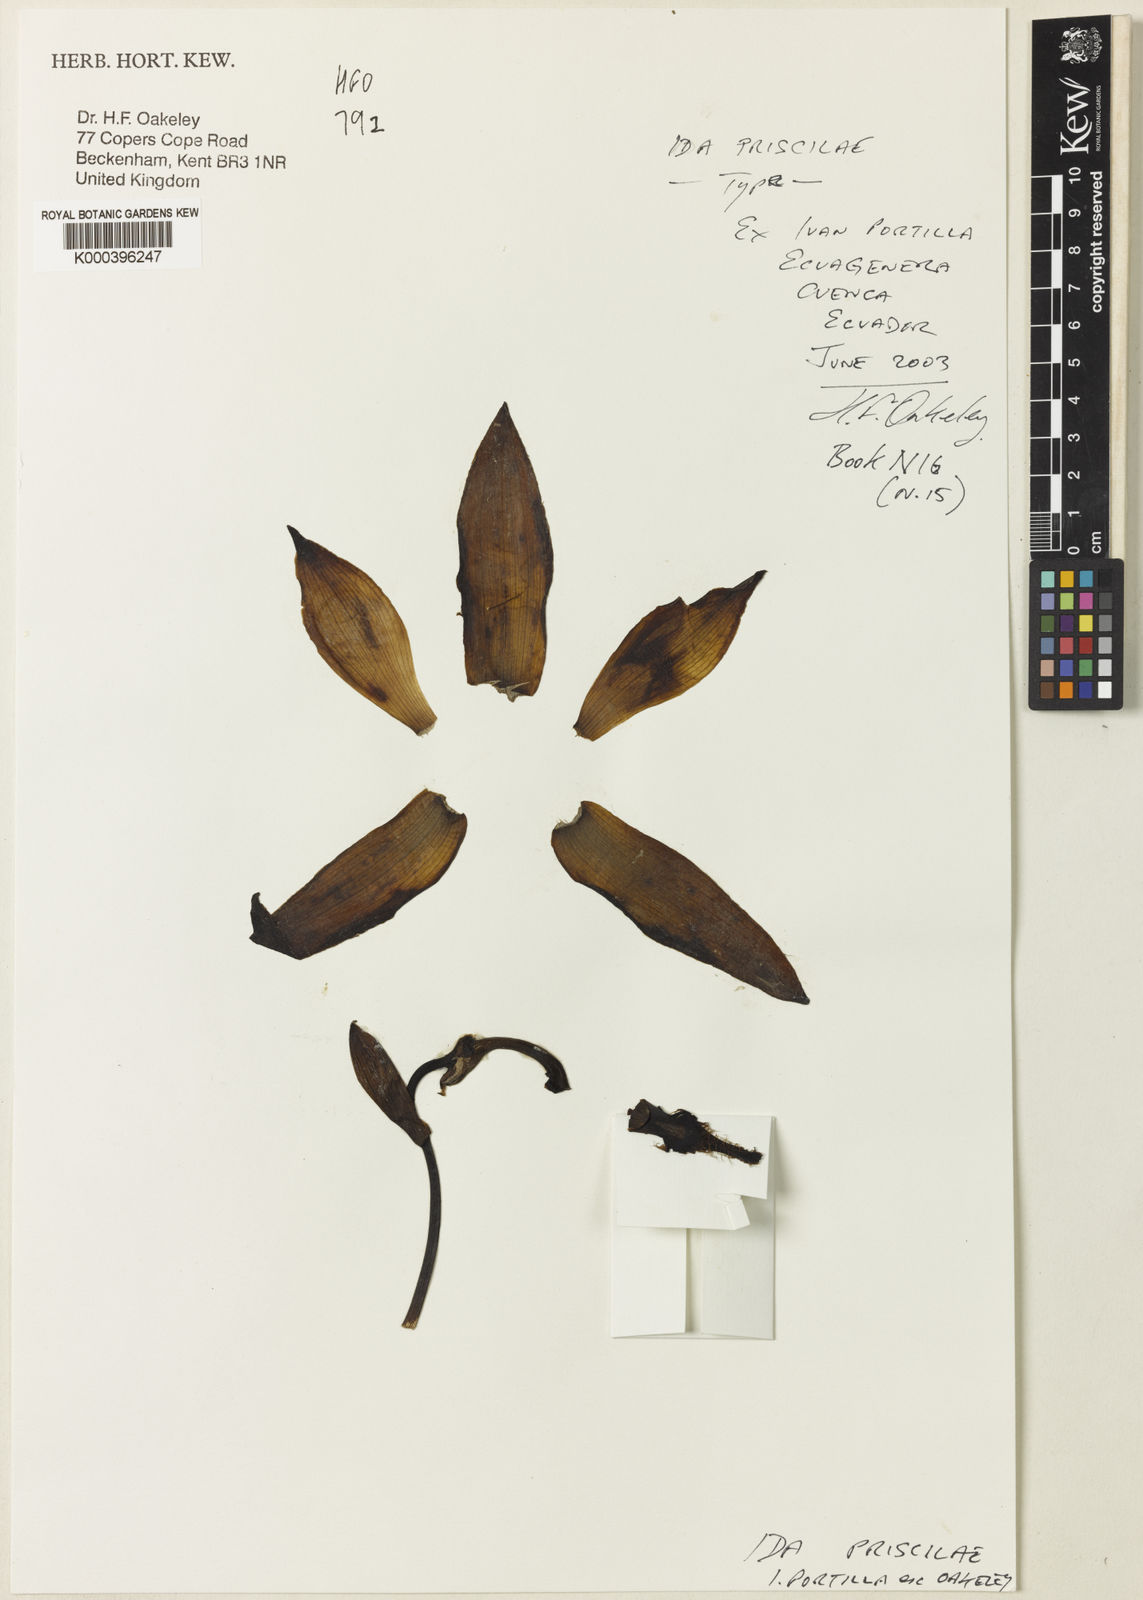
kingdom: Plantae
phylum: Tracheophyta
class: Liliopsida
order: Asparagales
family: Orchidaceae
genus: Ida
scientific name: Ida priscilae
